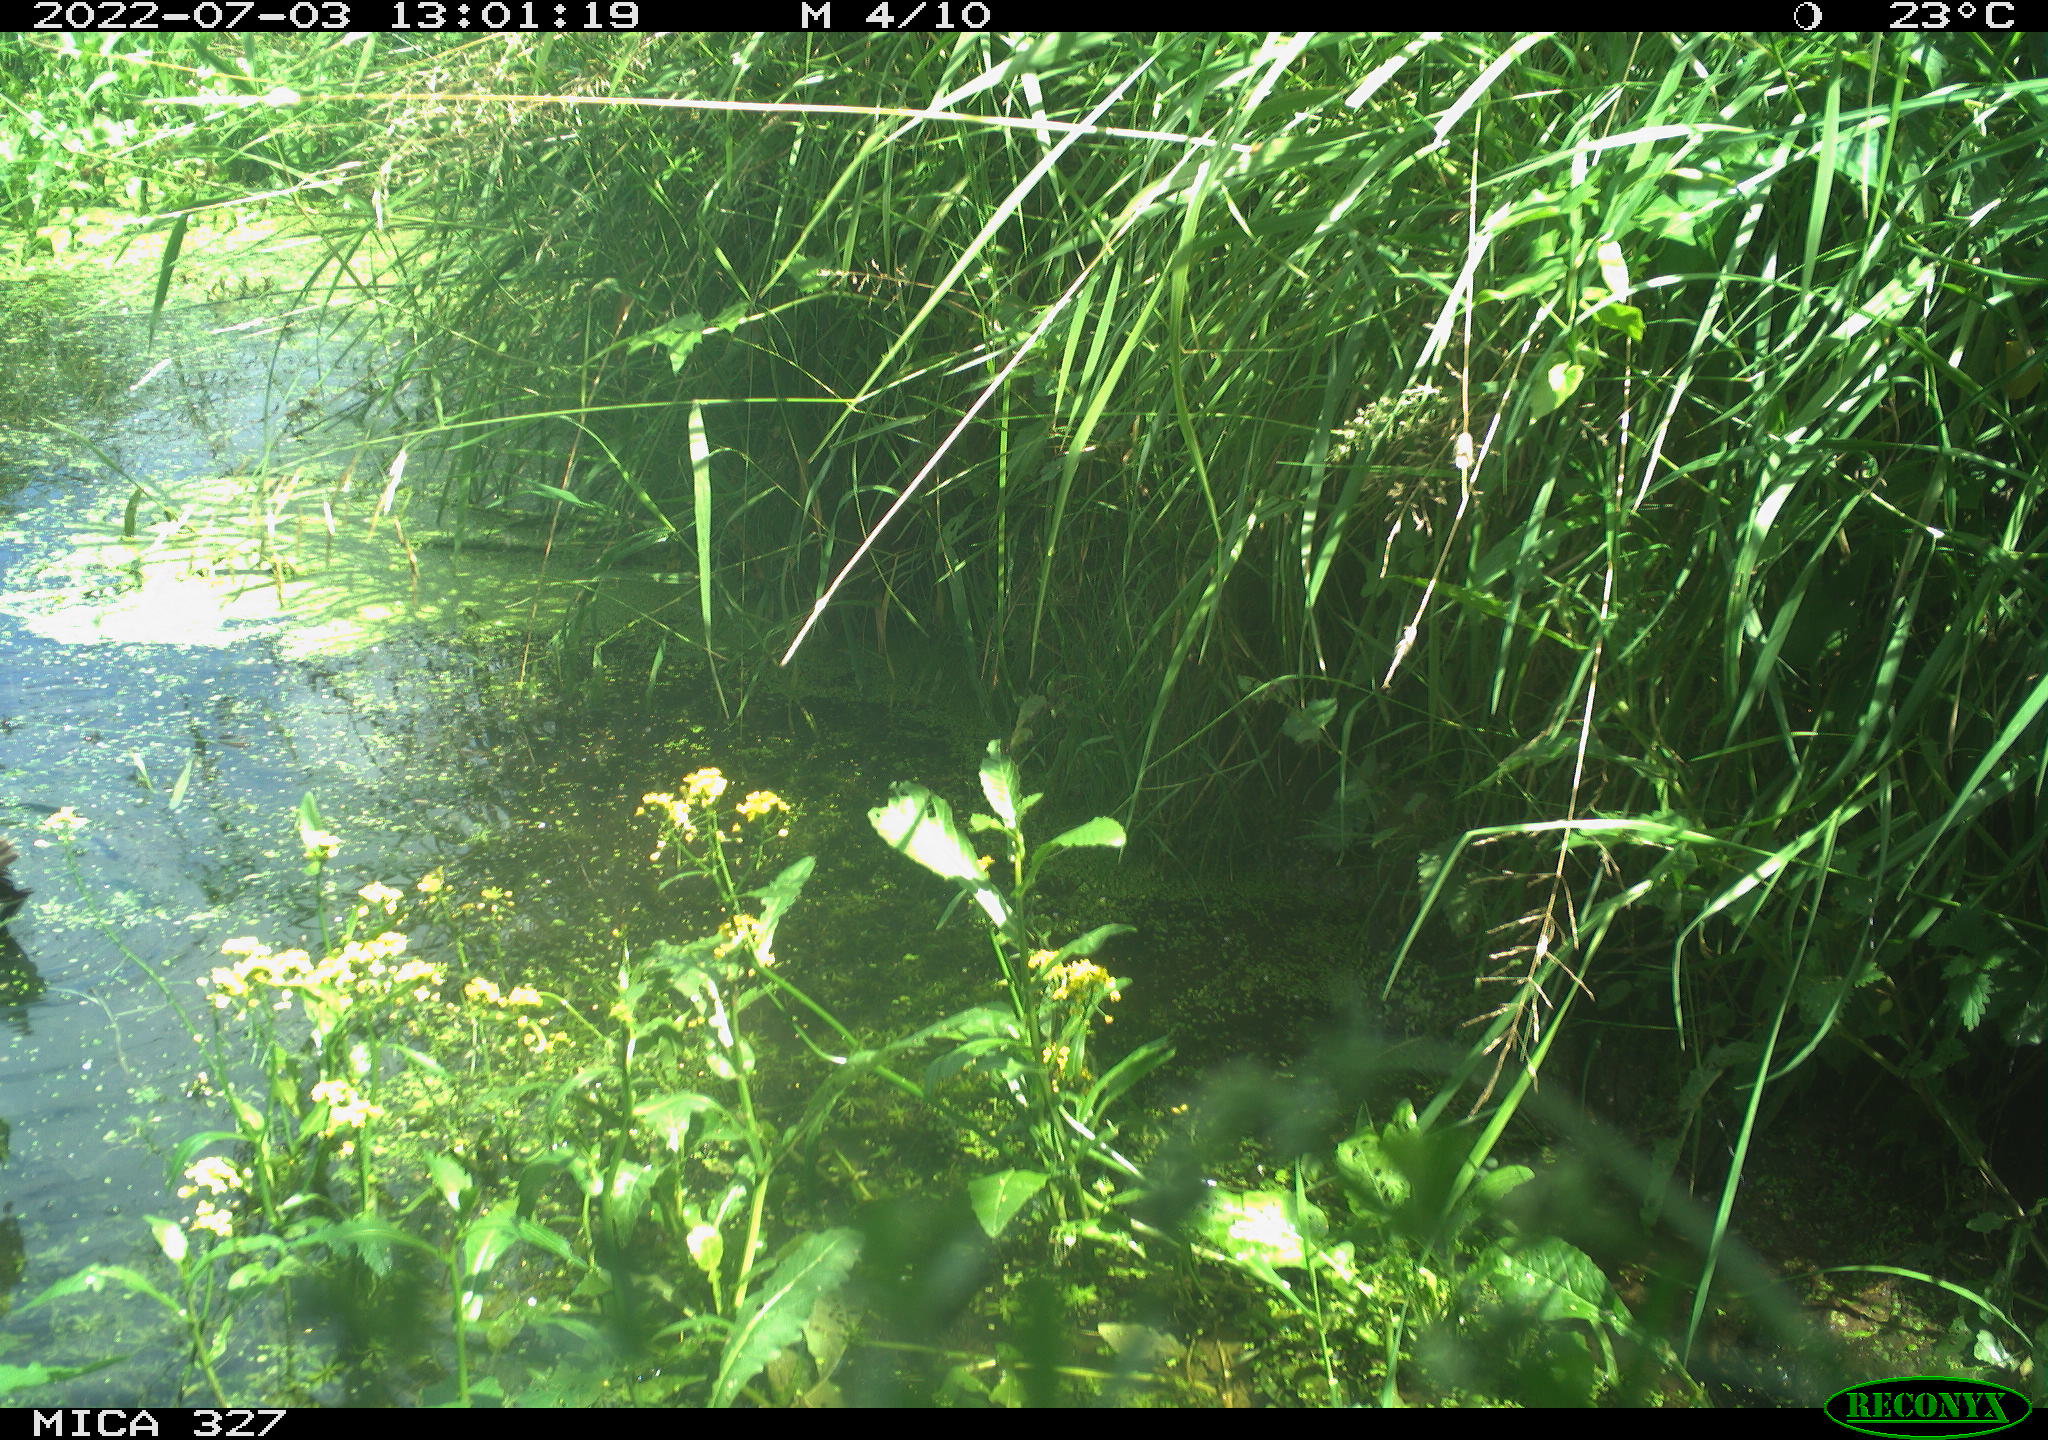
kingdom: Animalia
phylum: Chordata
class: Aves
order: Gruiformes
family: Rallidae
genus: Gallinula
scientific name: Gallinula chloropus
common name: Common moorhen
